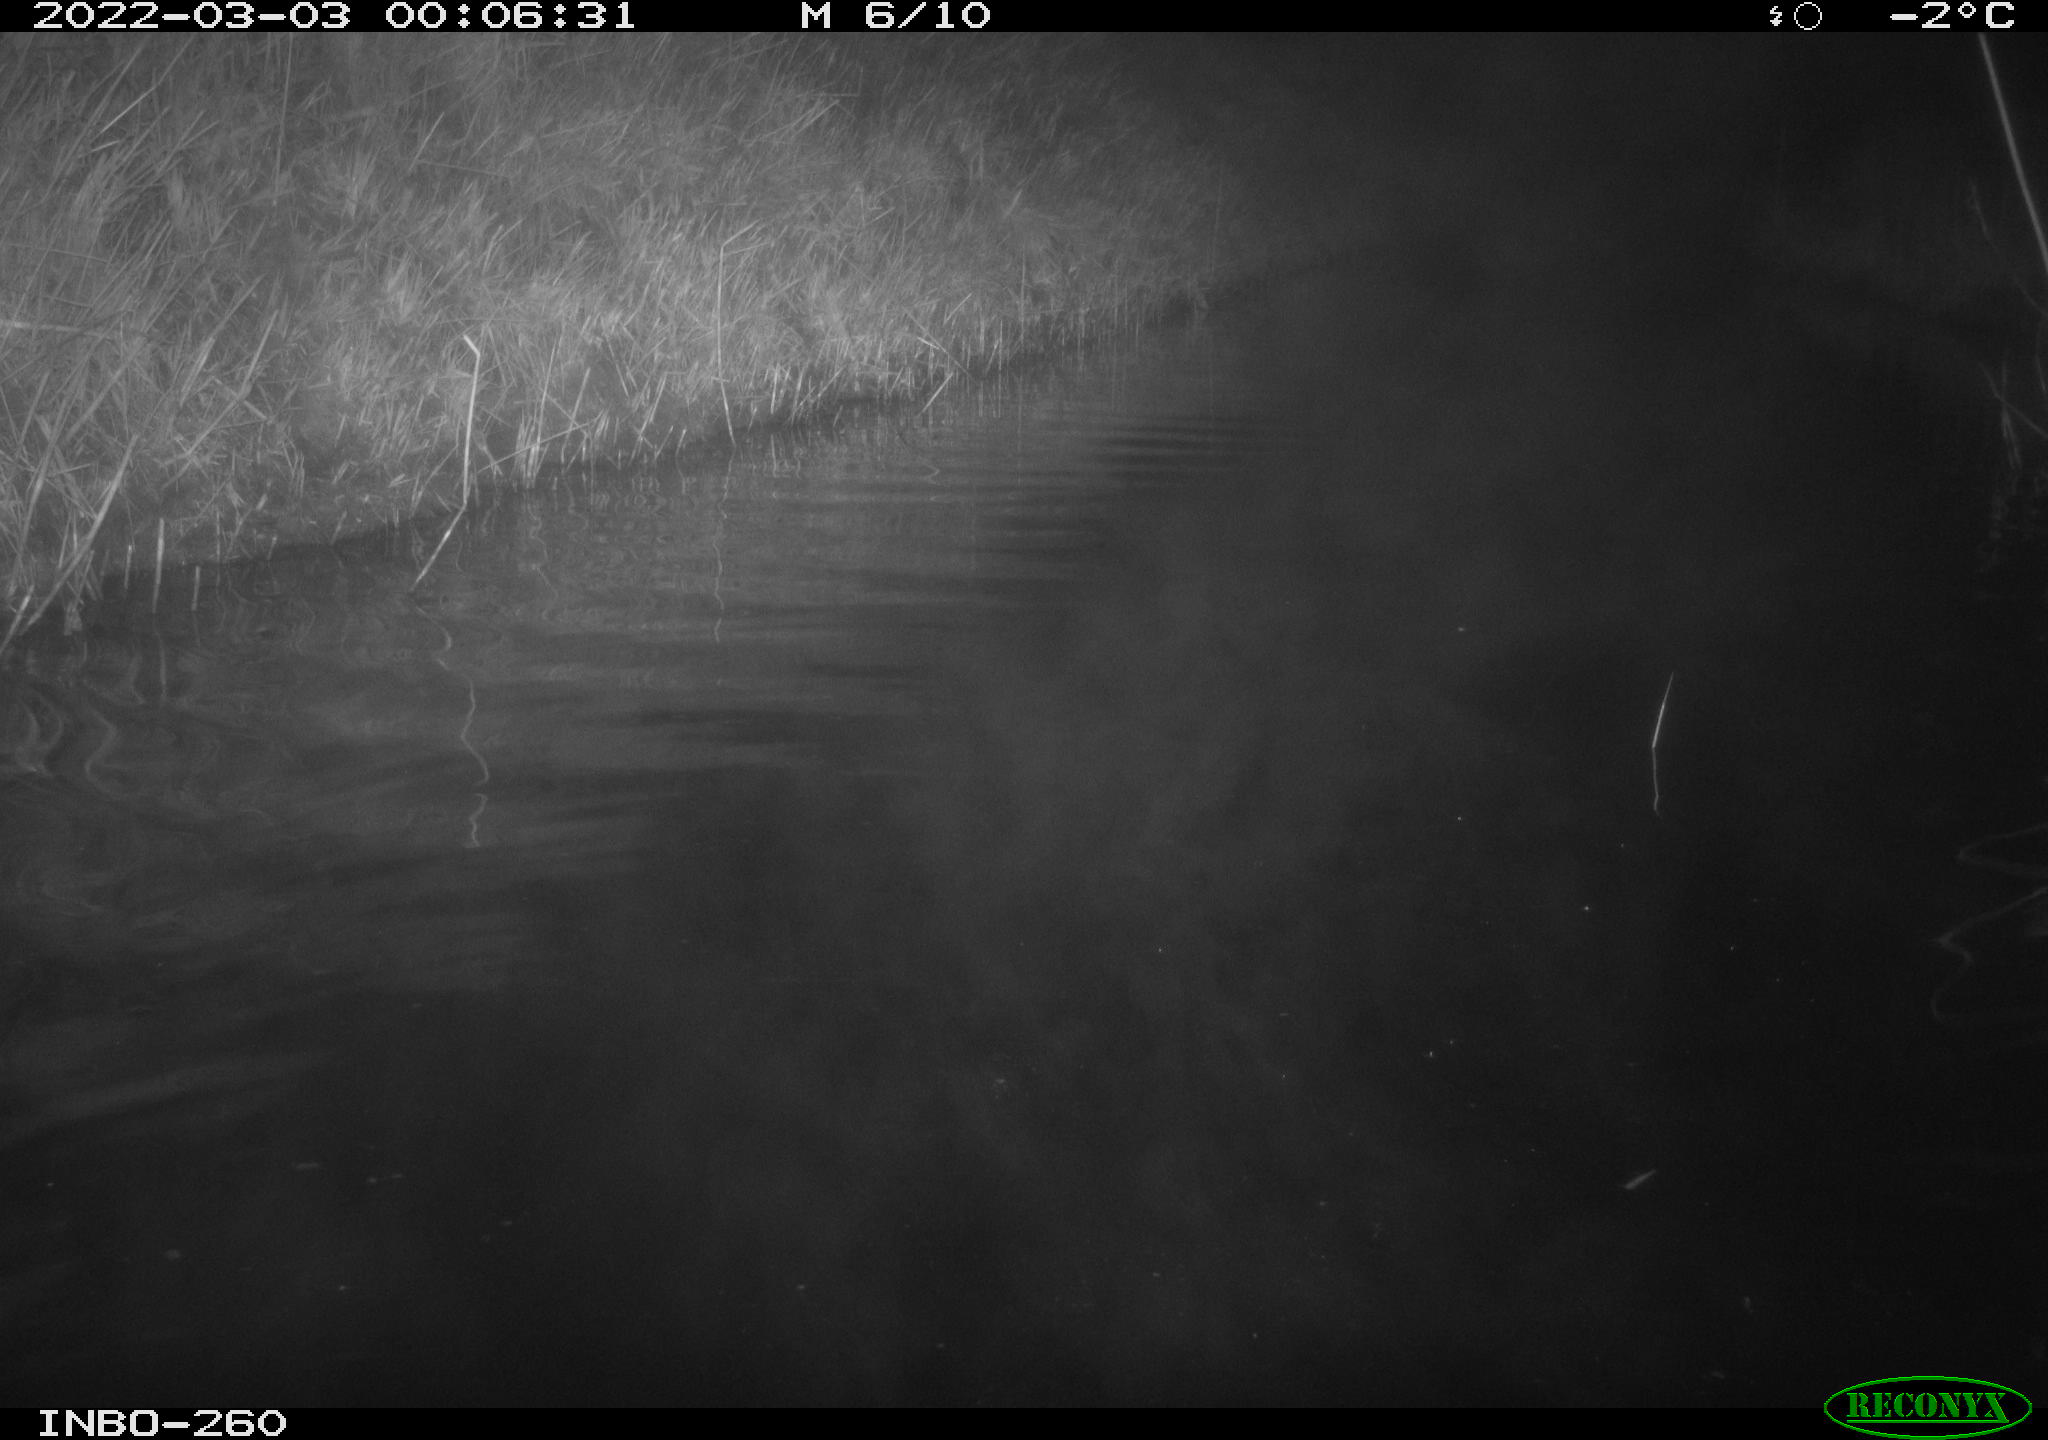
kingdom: Animalia
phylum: Chordata
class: Mammalia
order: Rodentia
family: Cricetidae
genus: Ondatra
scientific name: Ondatra zibethicus
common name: Muskrat
